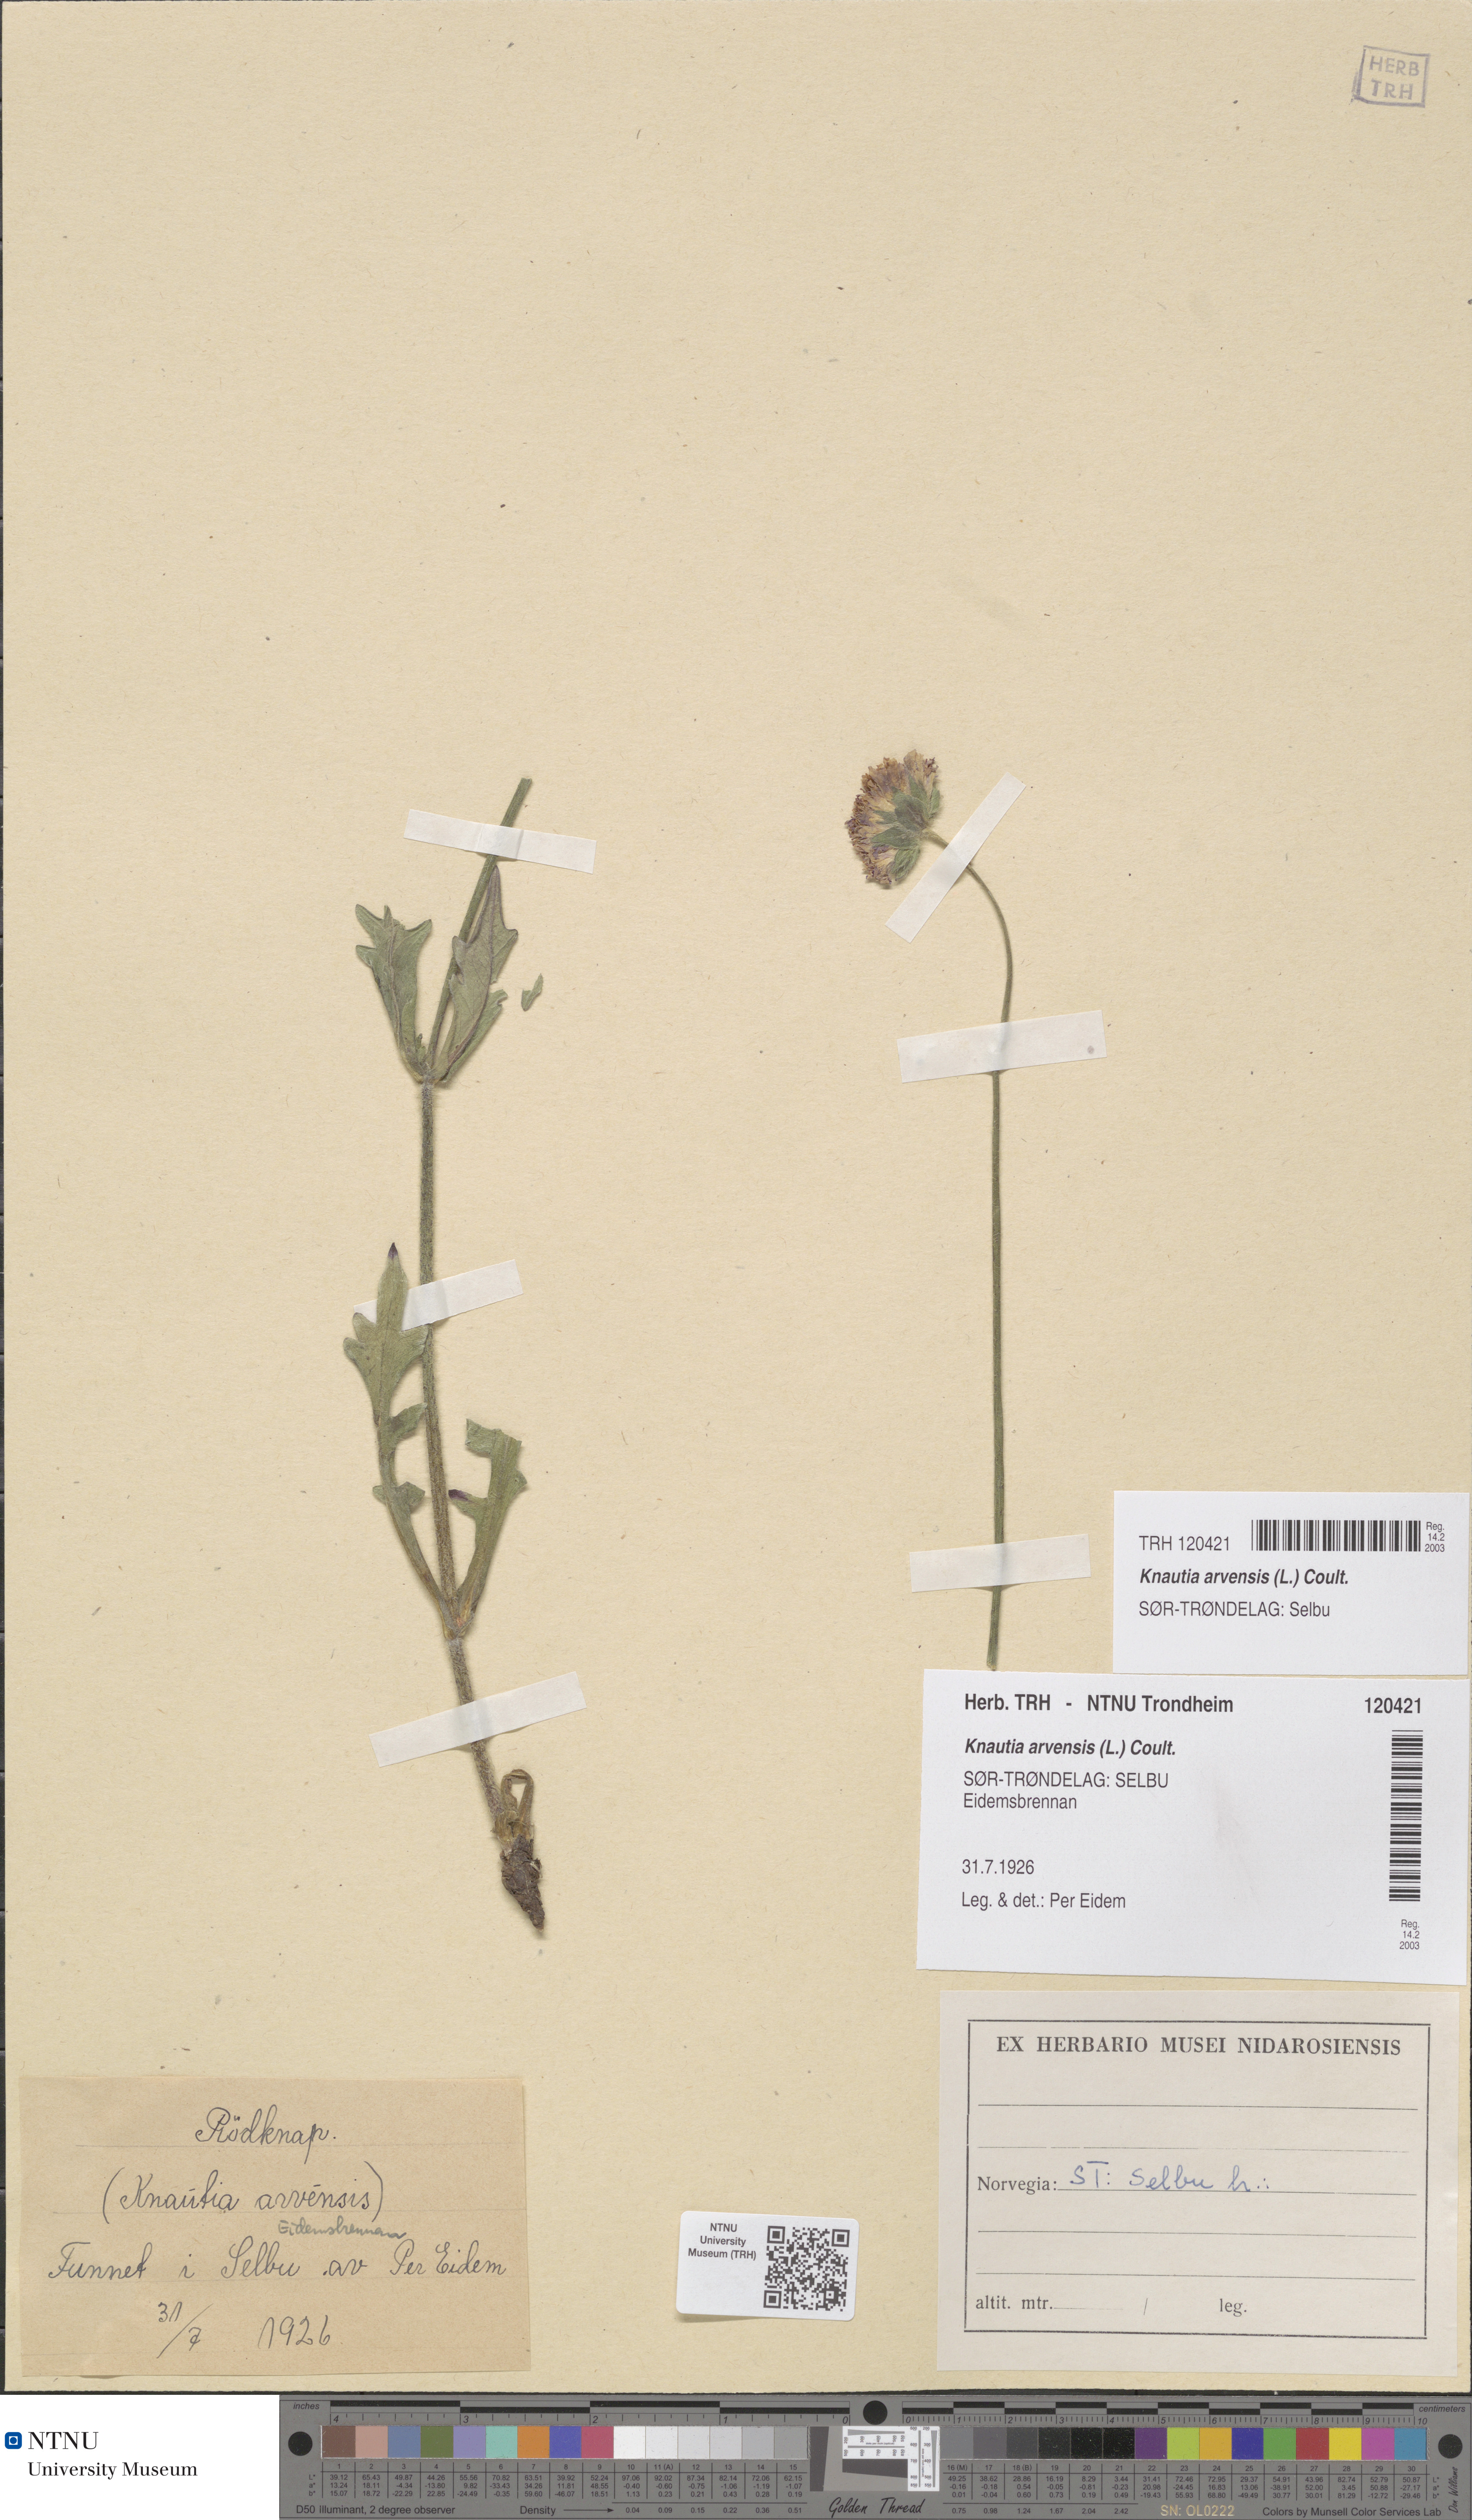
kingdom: Plantae
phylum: Tracheophyta
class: Magnoliopsida
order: Dipsacales
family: Caprifoliaceae
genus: Knautia
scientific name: Knautia arvensis
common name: Field scabiosa
